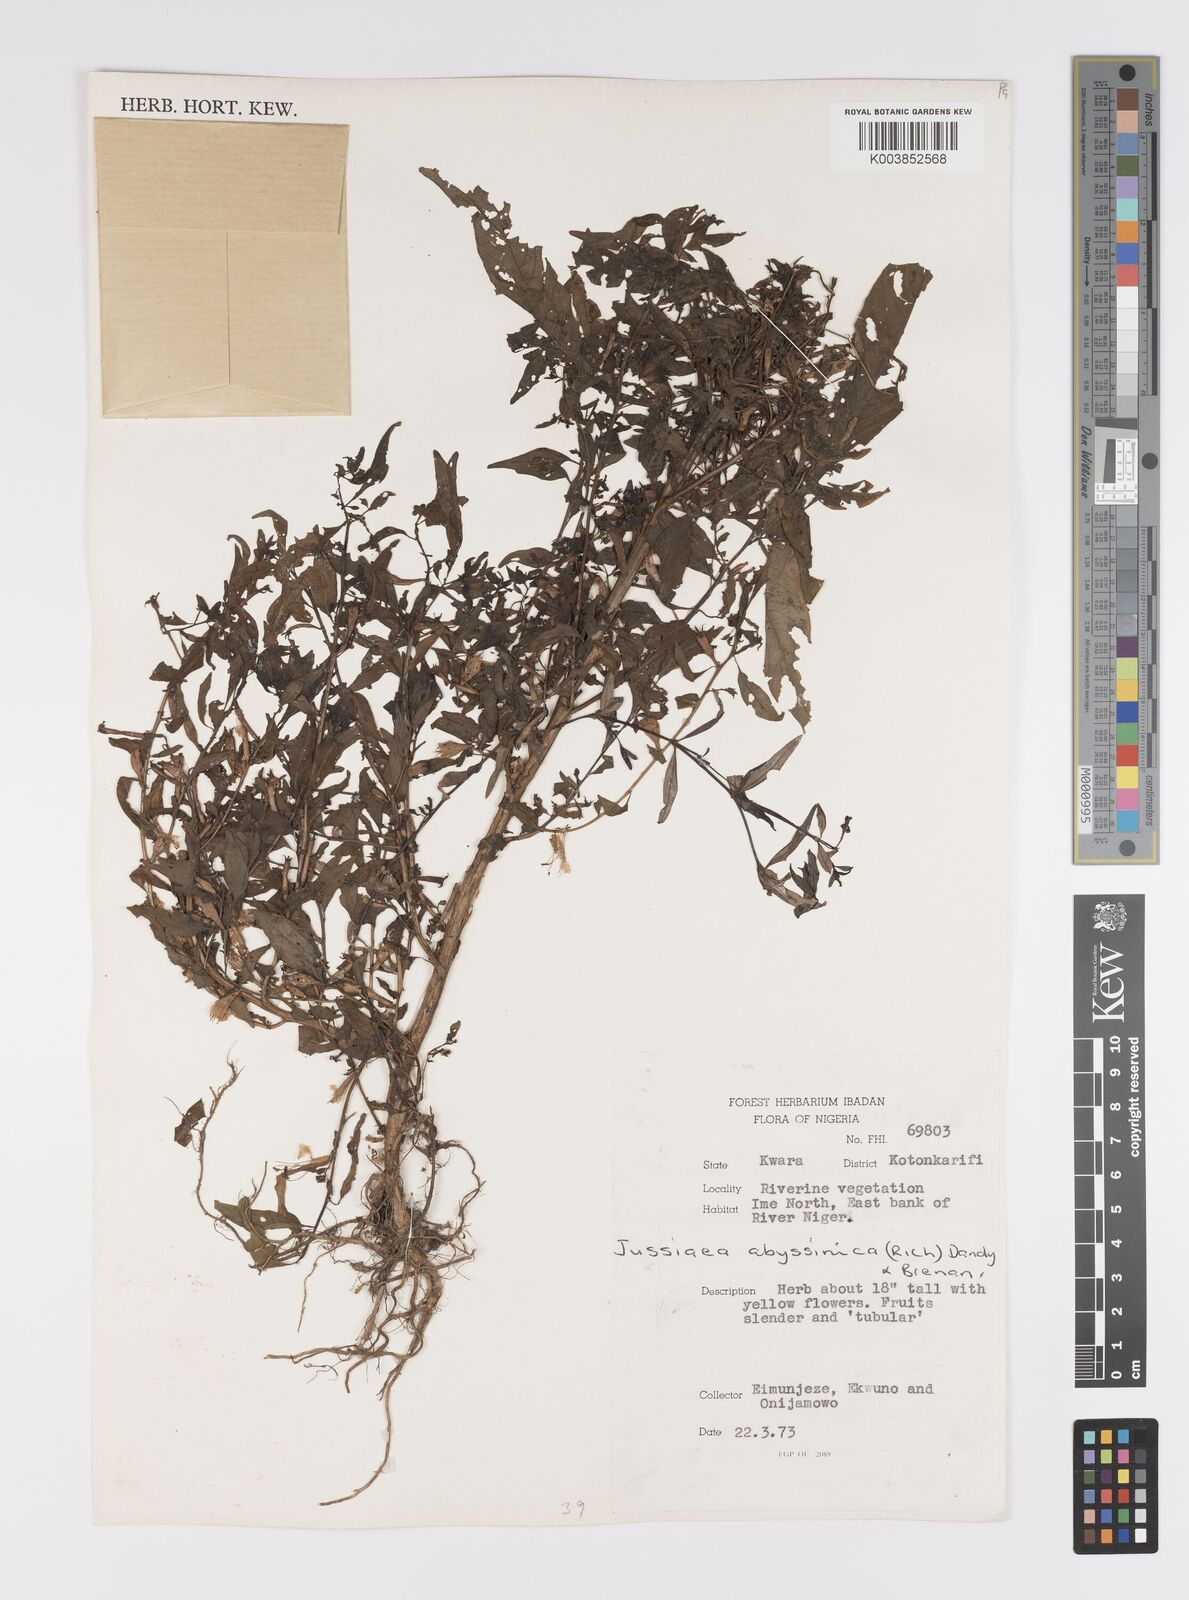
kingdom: Plantae
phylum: Tracheophyta
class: Magnoliopsida
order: Myrtales
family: Onagraceae
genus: Ludwigia
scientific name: Ludwigia abyssinica
